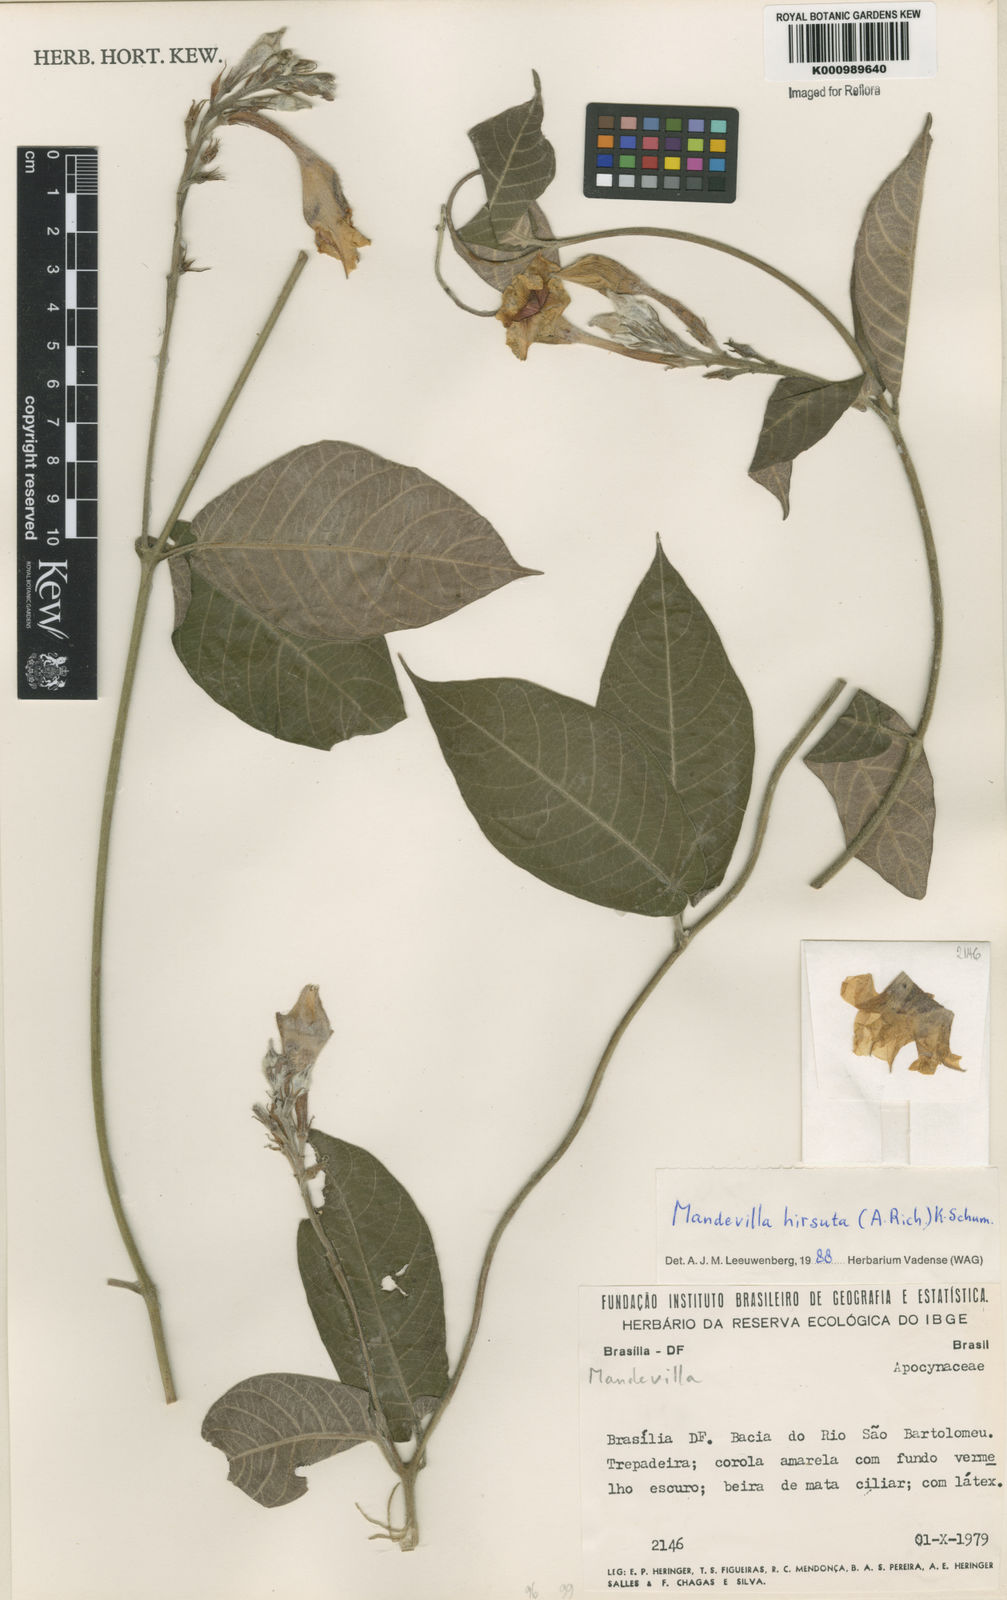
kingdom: Plantae
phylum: Tracheophyta
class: Magnoliopsida
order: Gentianales
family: Apocynaceae
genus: Mandevilla
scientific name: Mandevilla hirsuta
